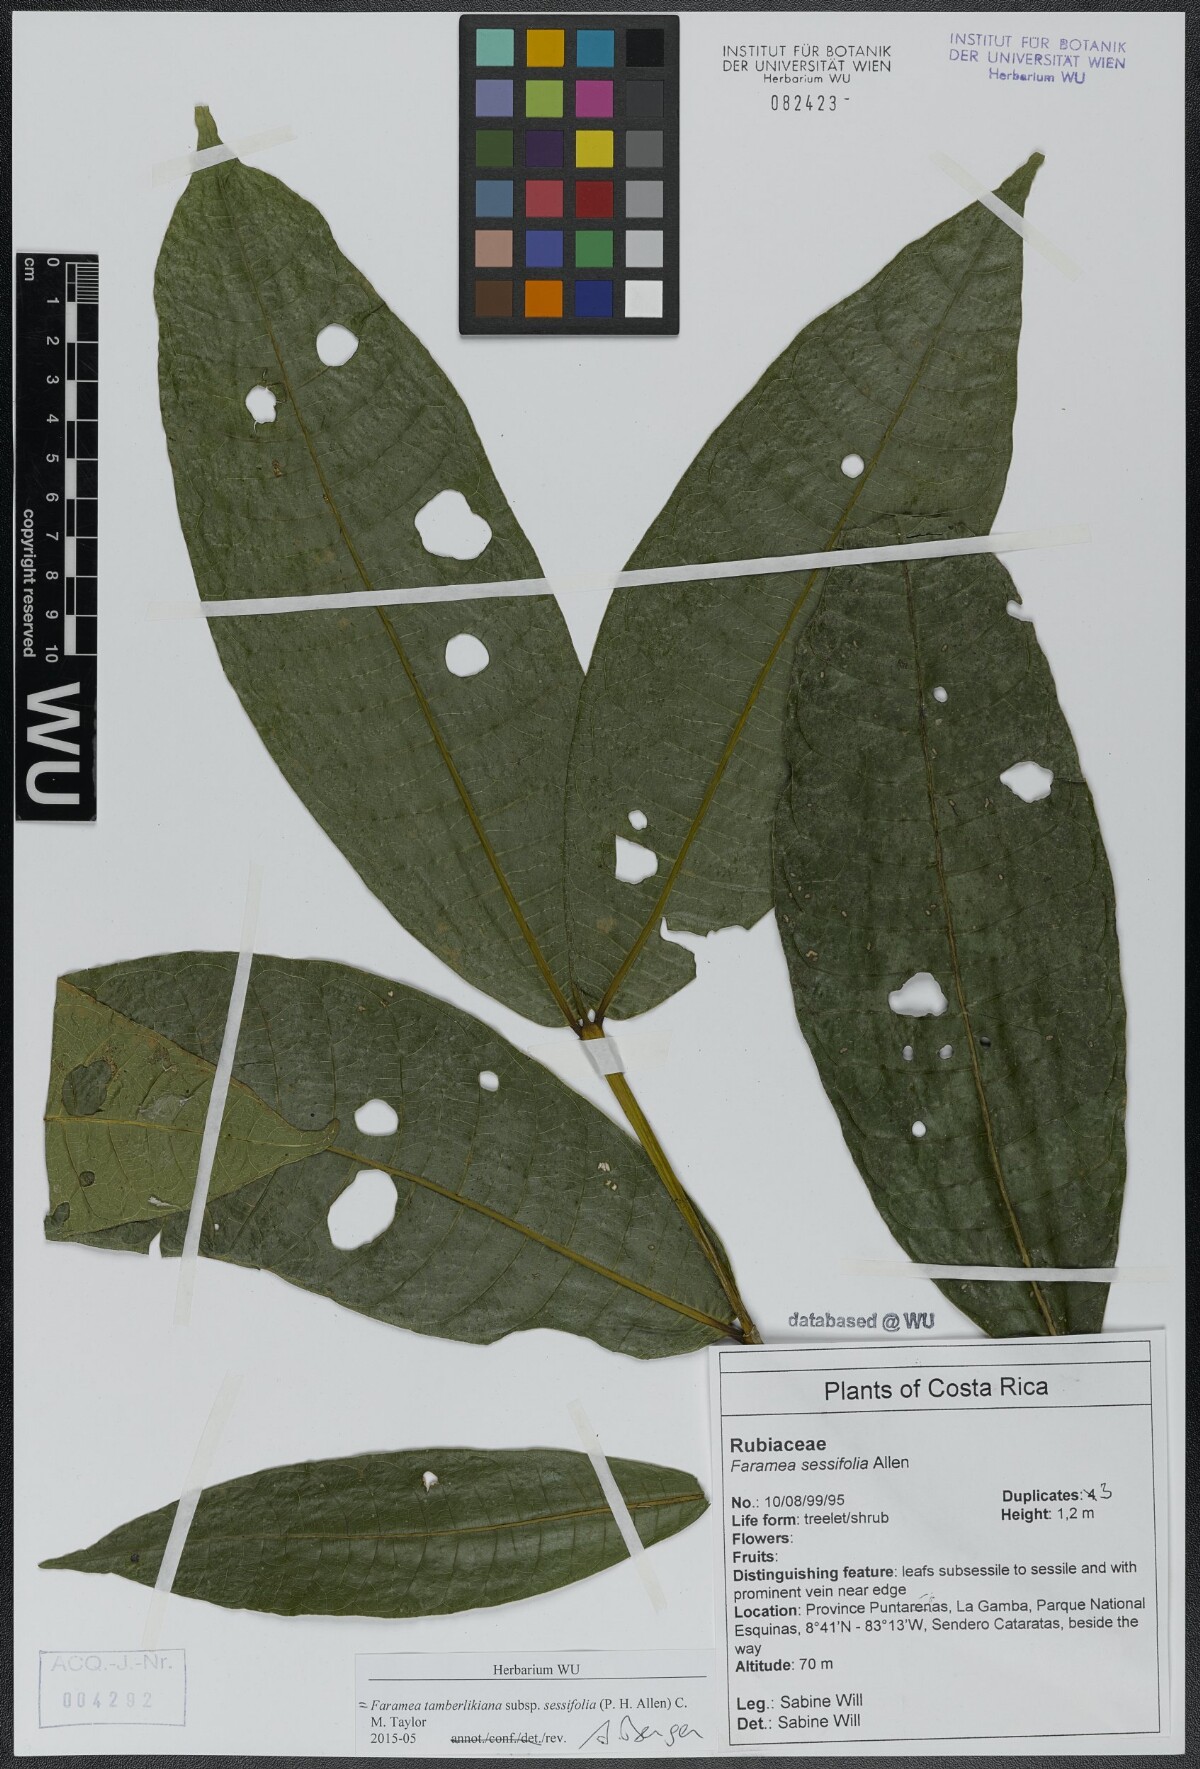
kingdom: Plantae
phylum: Tracheophyta
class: Magnoliopsida
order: Gentianales
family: Rubiaceae
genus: Faramea
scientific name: Faramea tamberlikiana
